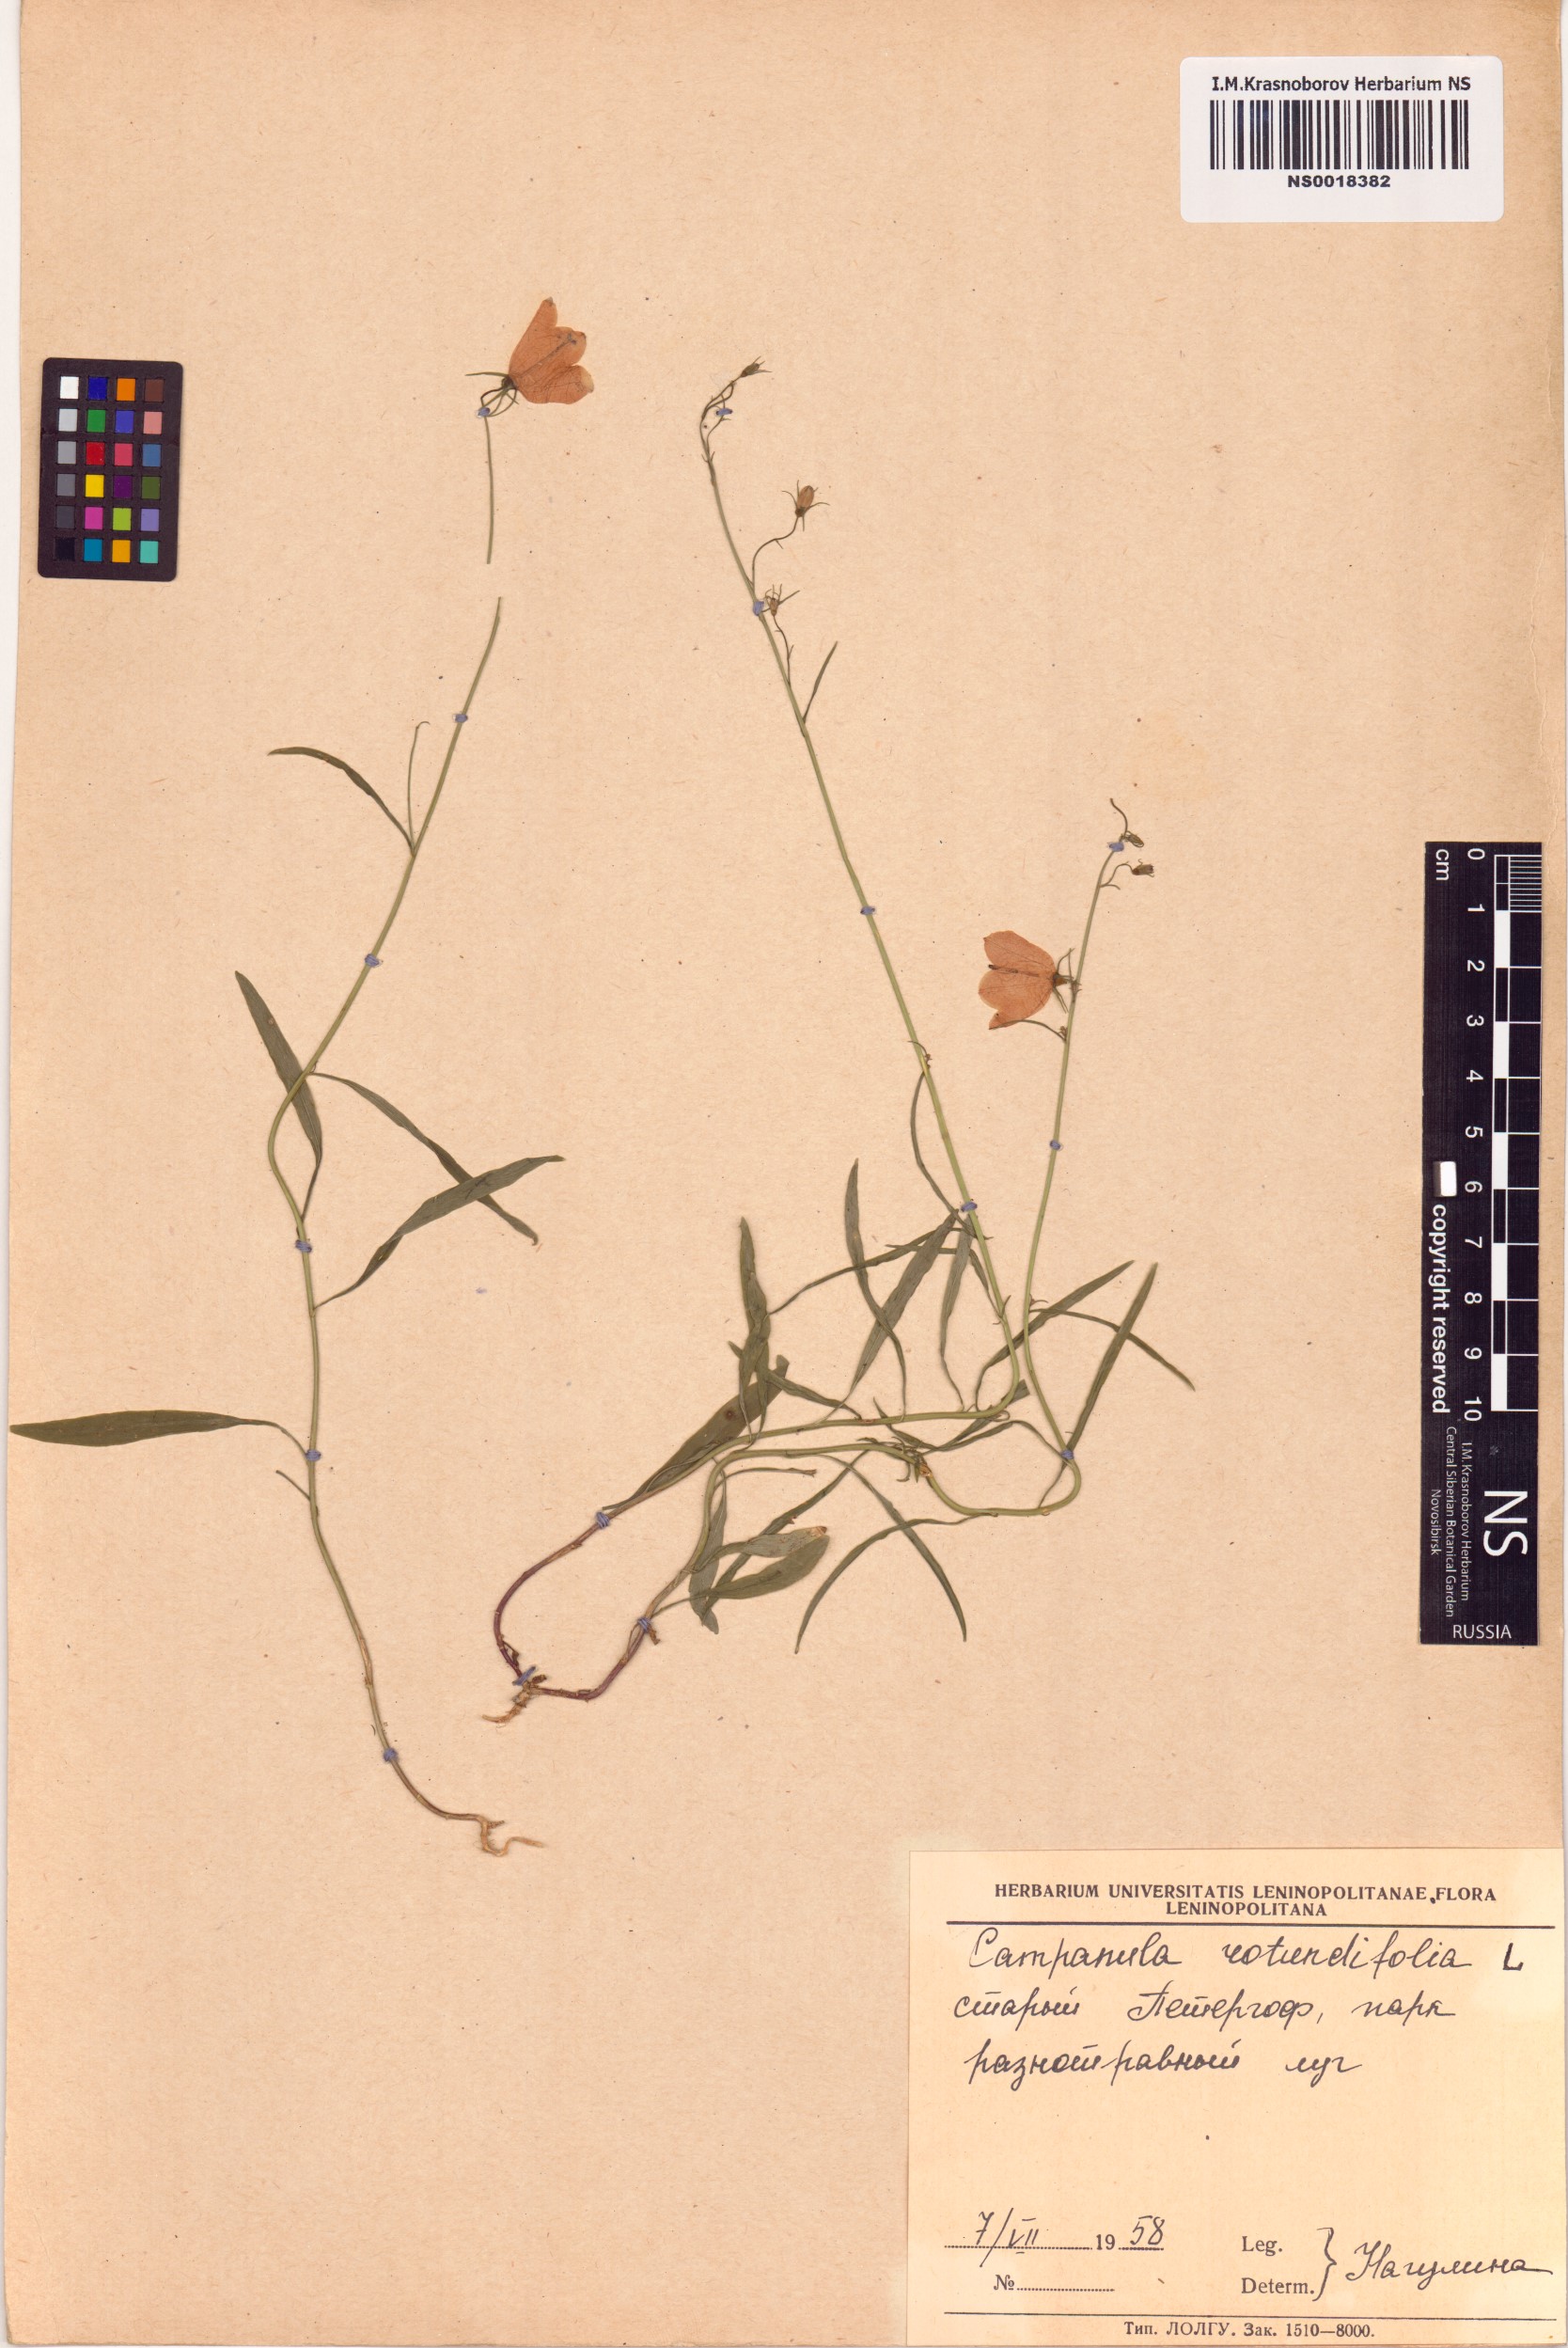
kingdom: Plantae
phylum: Tracheophyta
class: Magnoliopsida
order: Asterales
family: Campanulaceae
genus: Campanula
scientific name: Campanula rotundifolia
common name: Harebell
